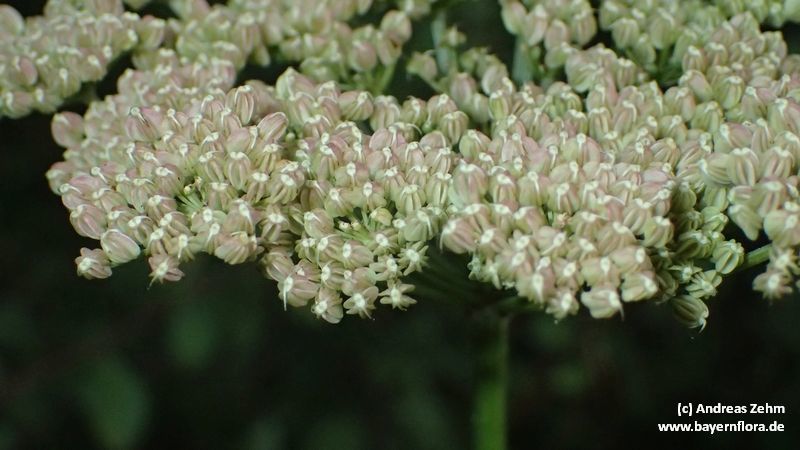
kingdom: Plantae
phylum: Tracheophyta
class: Magnoliopsida
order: Apiales
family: Apiaceae
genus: Selinum
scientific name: Selinum carvifolia
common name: Cambridge milk-parsley
